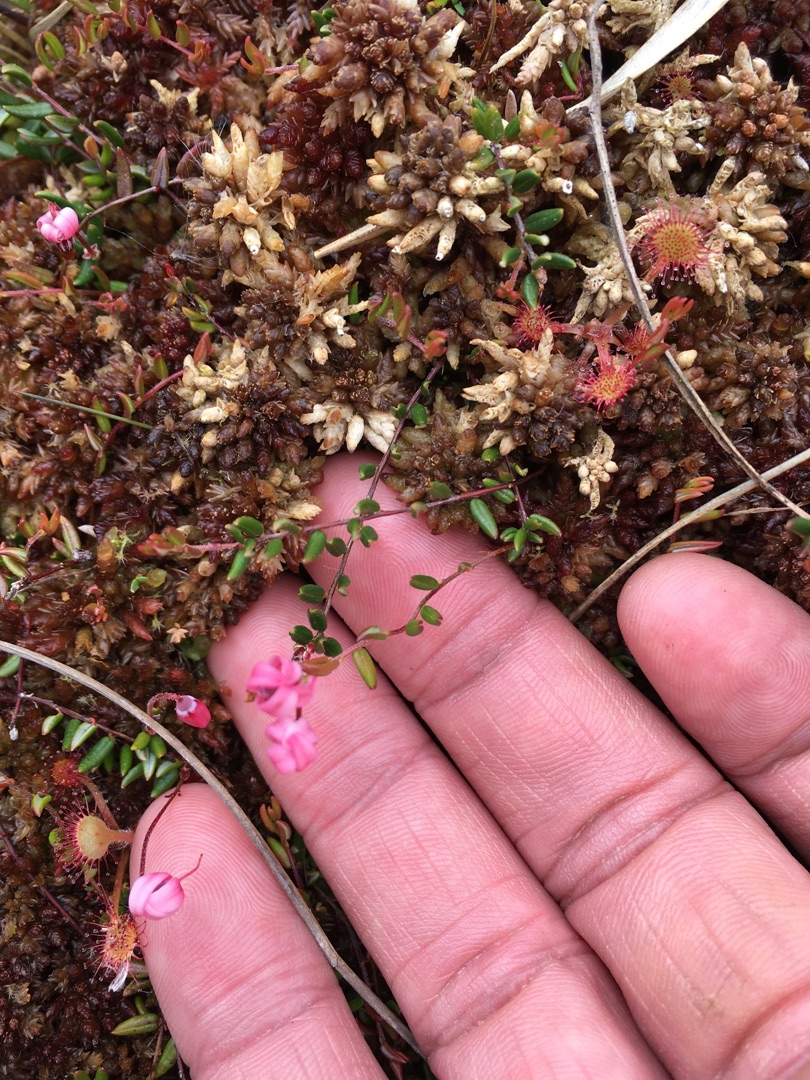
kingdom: Plantae
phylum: Tracheophyta
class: Magnoliopsida
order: Ericales
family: Ericaceae
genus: Vaccinium
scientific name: Vaccinium oxycoccos
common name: Tranebær
